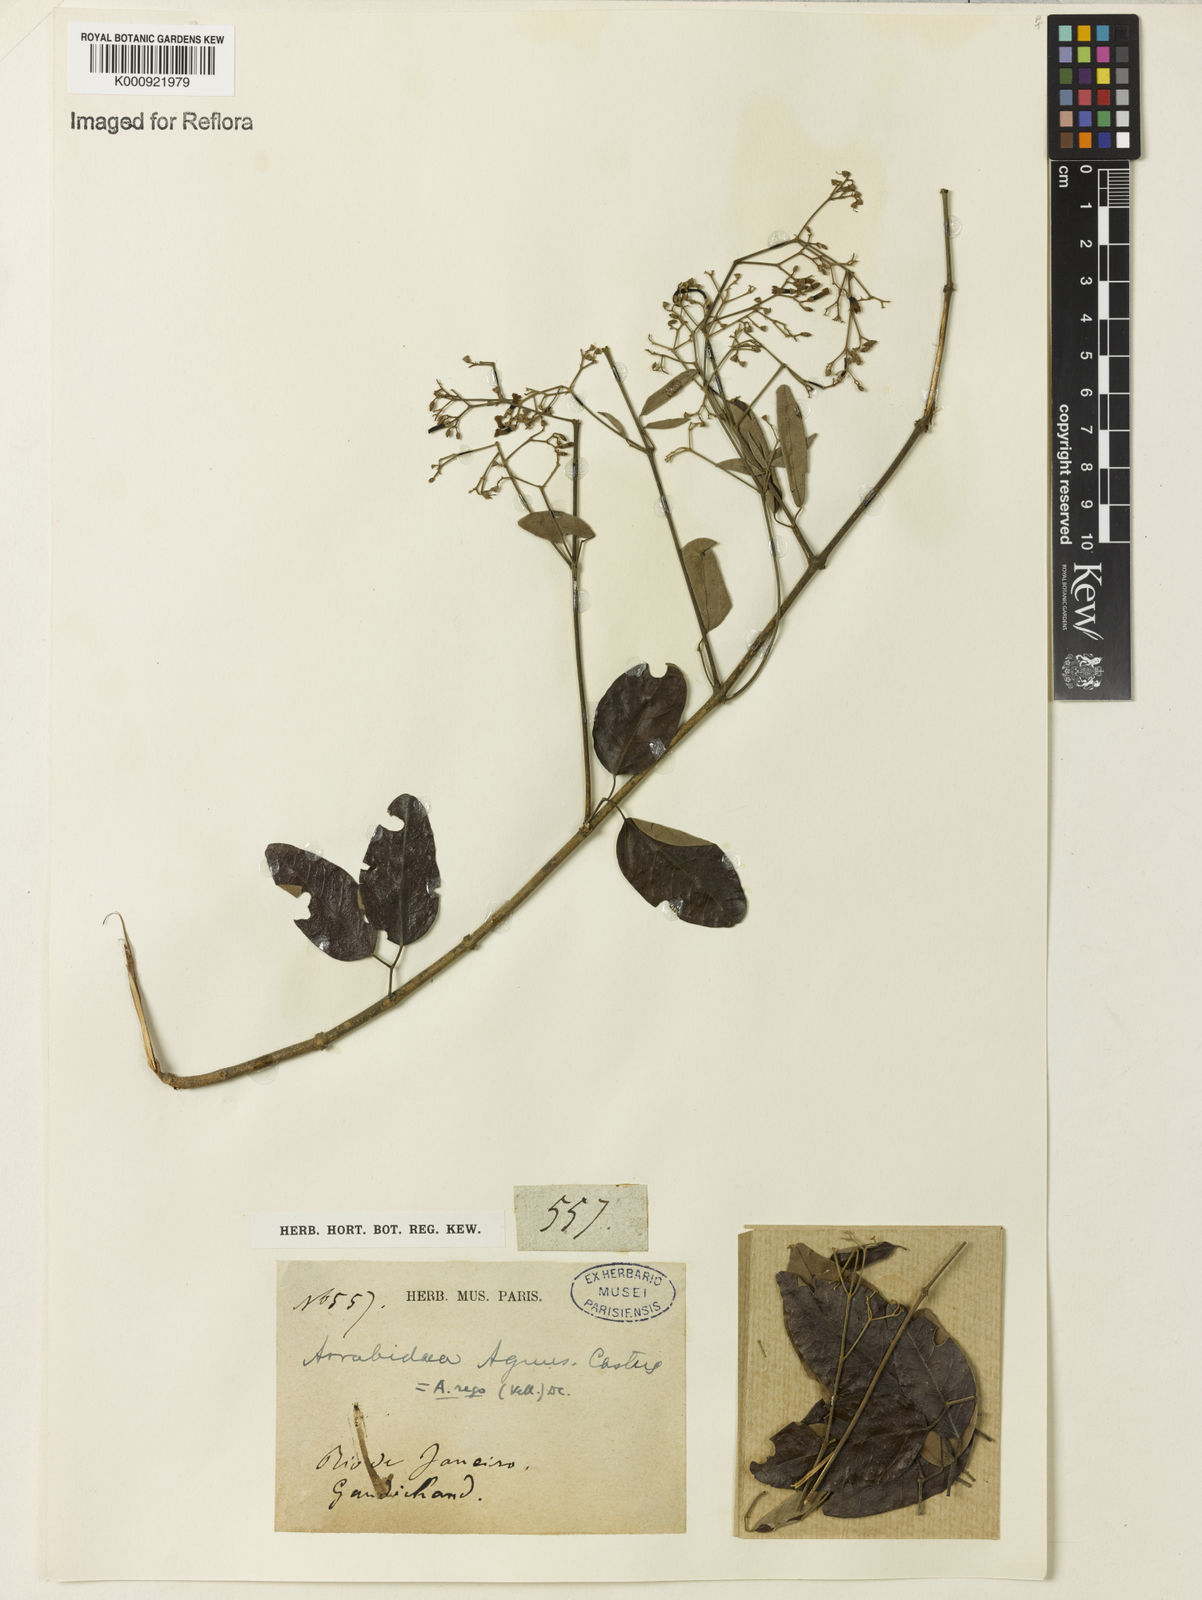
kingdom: Plantae
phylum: Tracheophyta
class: Magnoliopsida
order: Lamiales
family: Bignoniaceae
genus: Fridericia
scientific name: Fridericia rego
